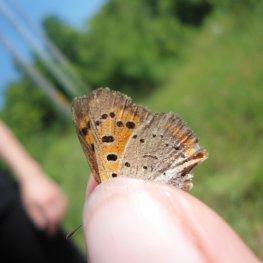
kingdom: Animalia
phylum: Arthropoda
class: Insecta
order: Lepidoptera
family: Lycaenidae
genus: Lycaena
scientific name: Lycaena phlaeas
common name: American Copper
